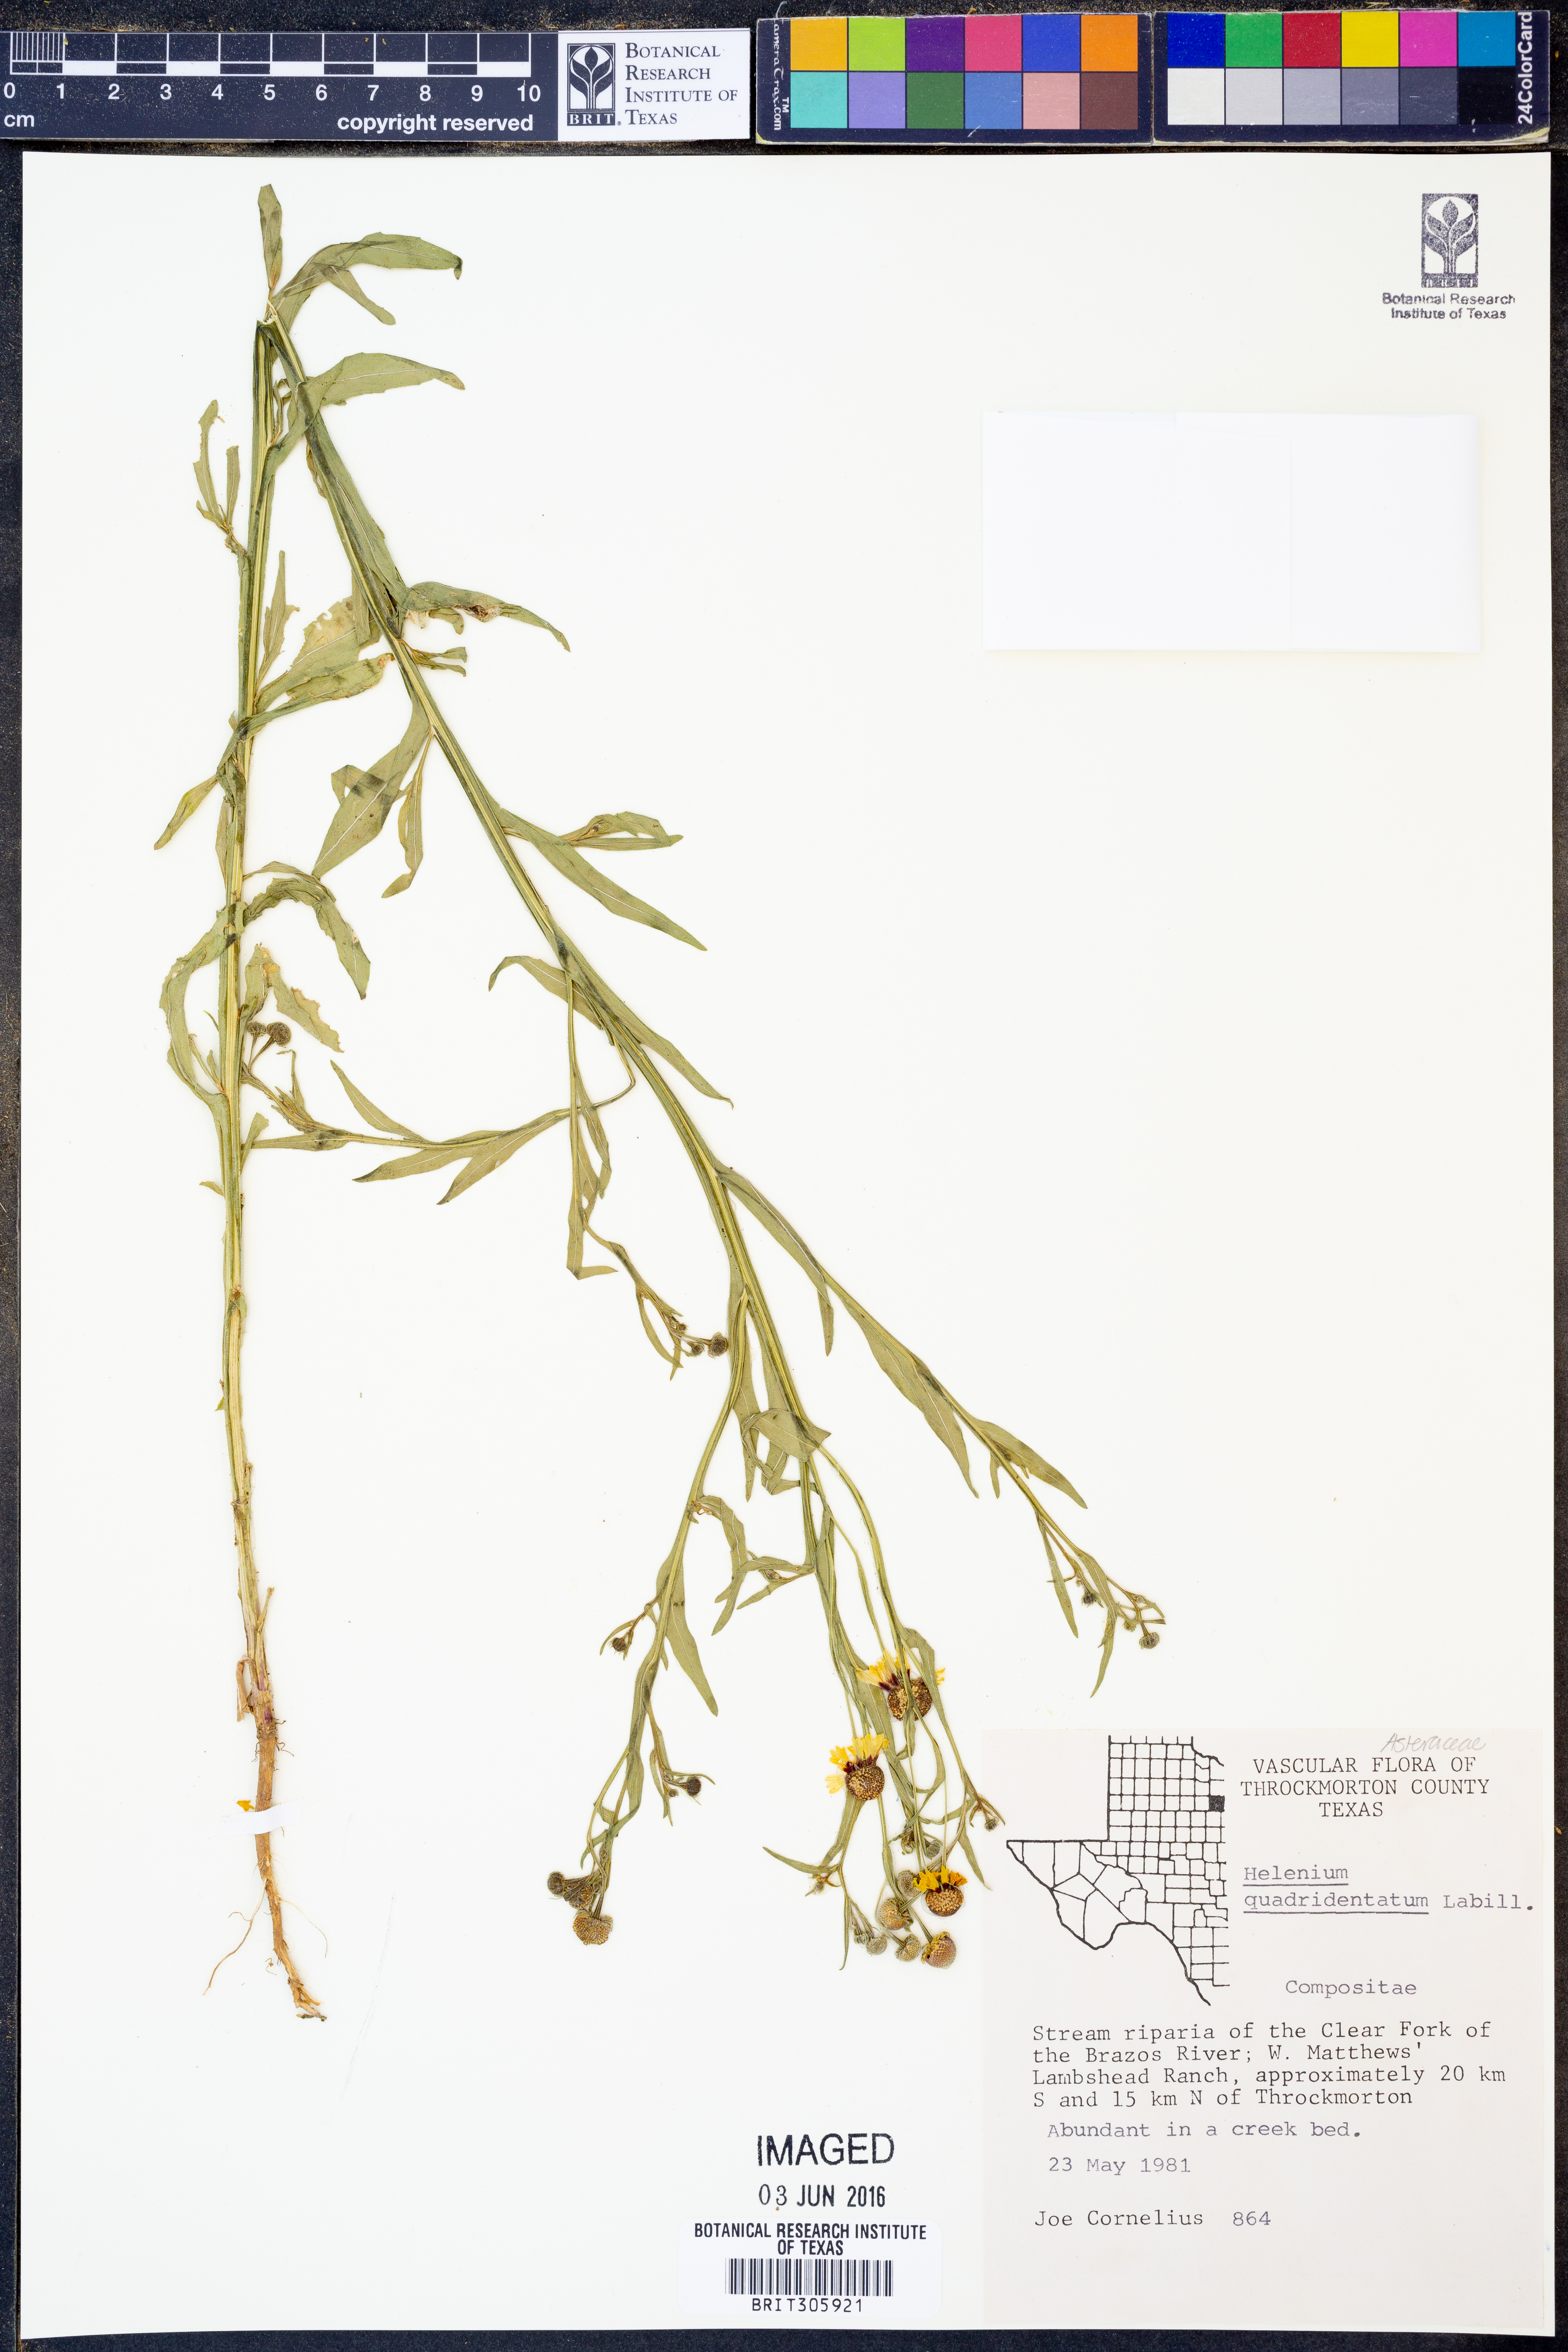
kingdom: Plantae
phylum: Tracheophyta
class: Magnoliopsida
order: Asterales
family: Asteraceae
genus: Helenium
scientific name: Helenium quadridentatum
